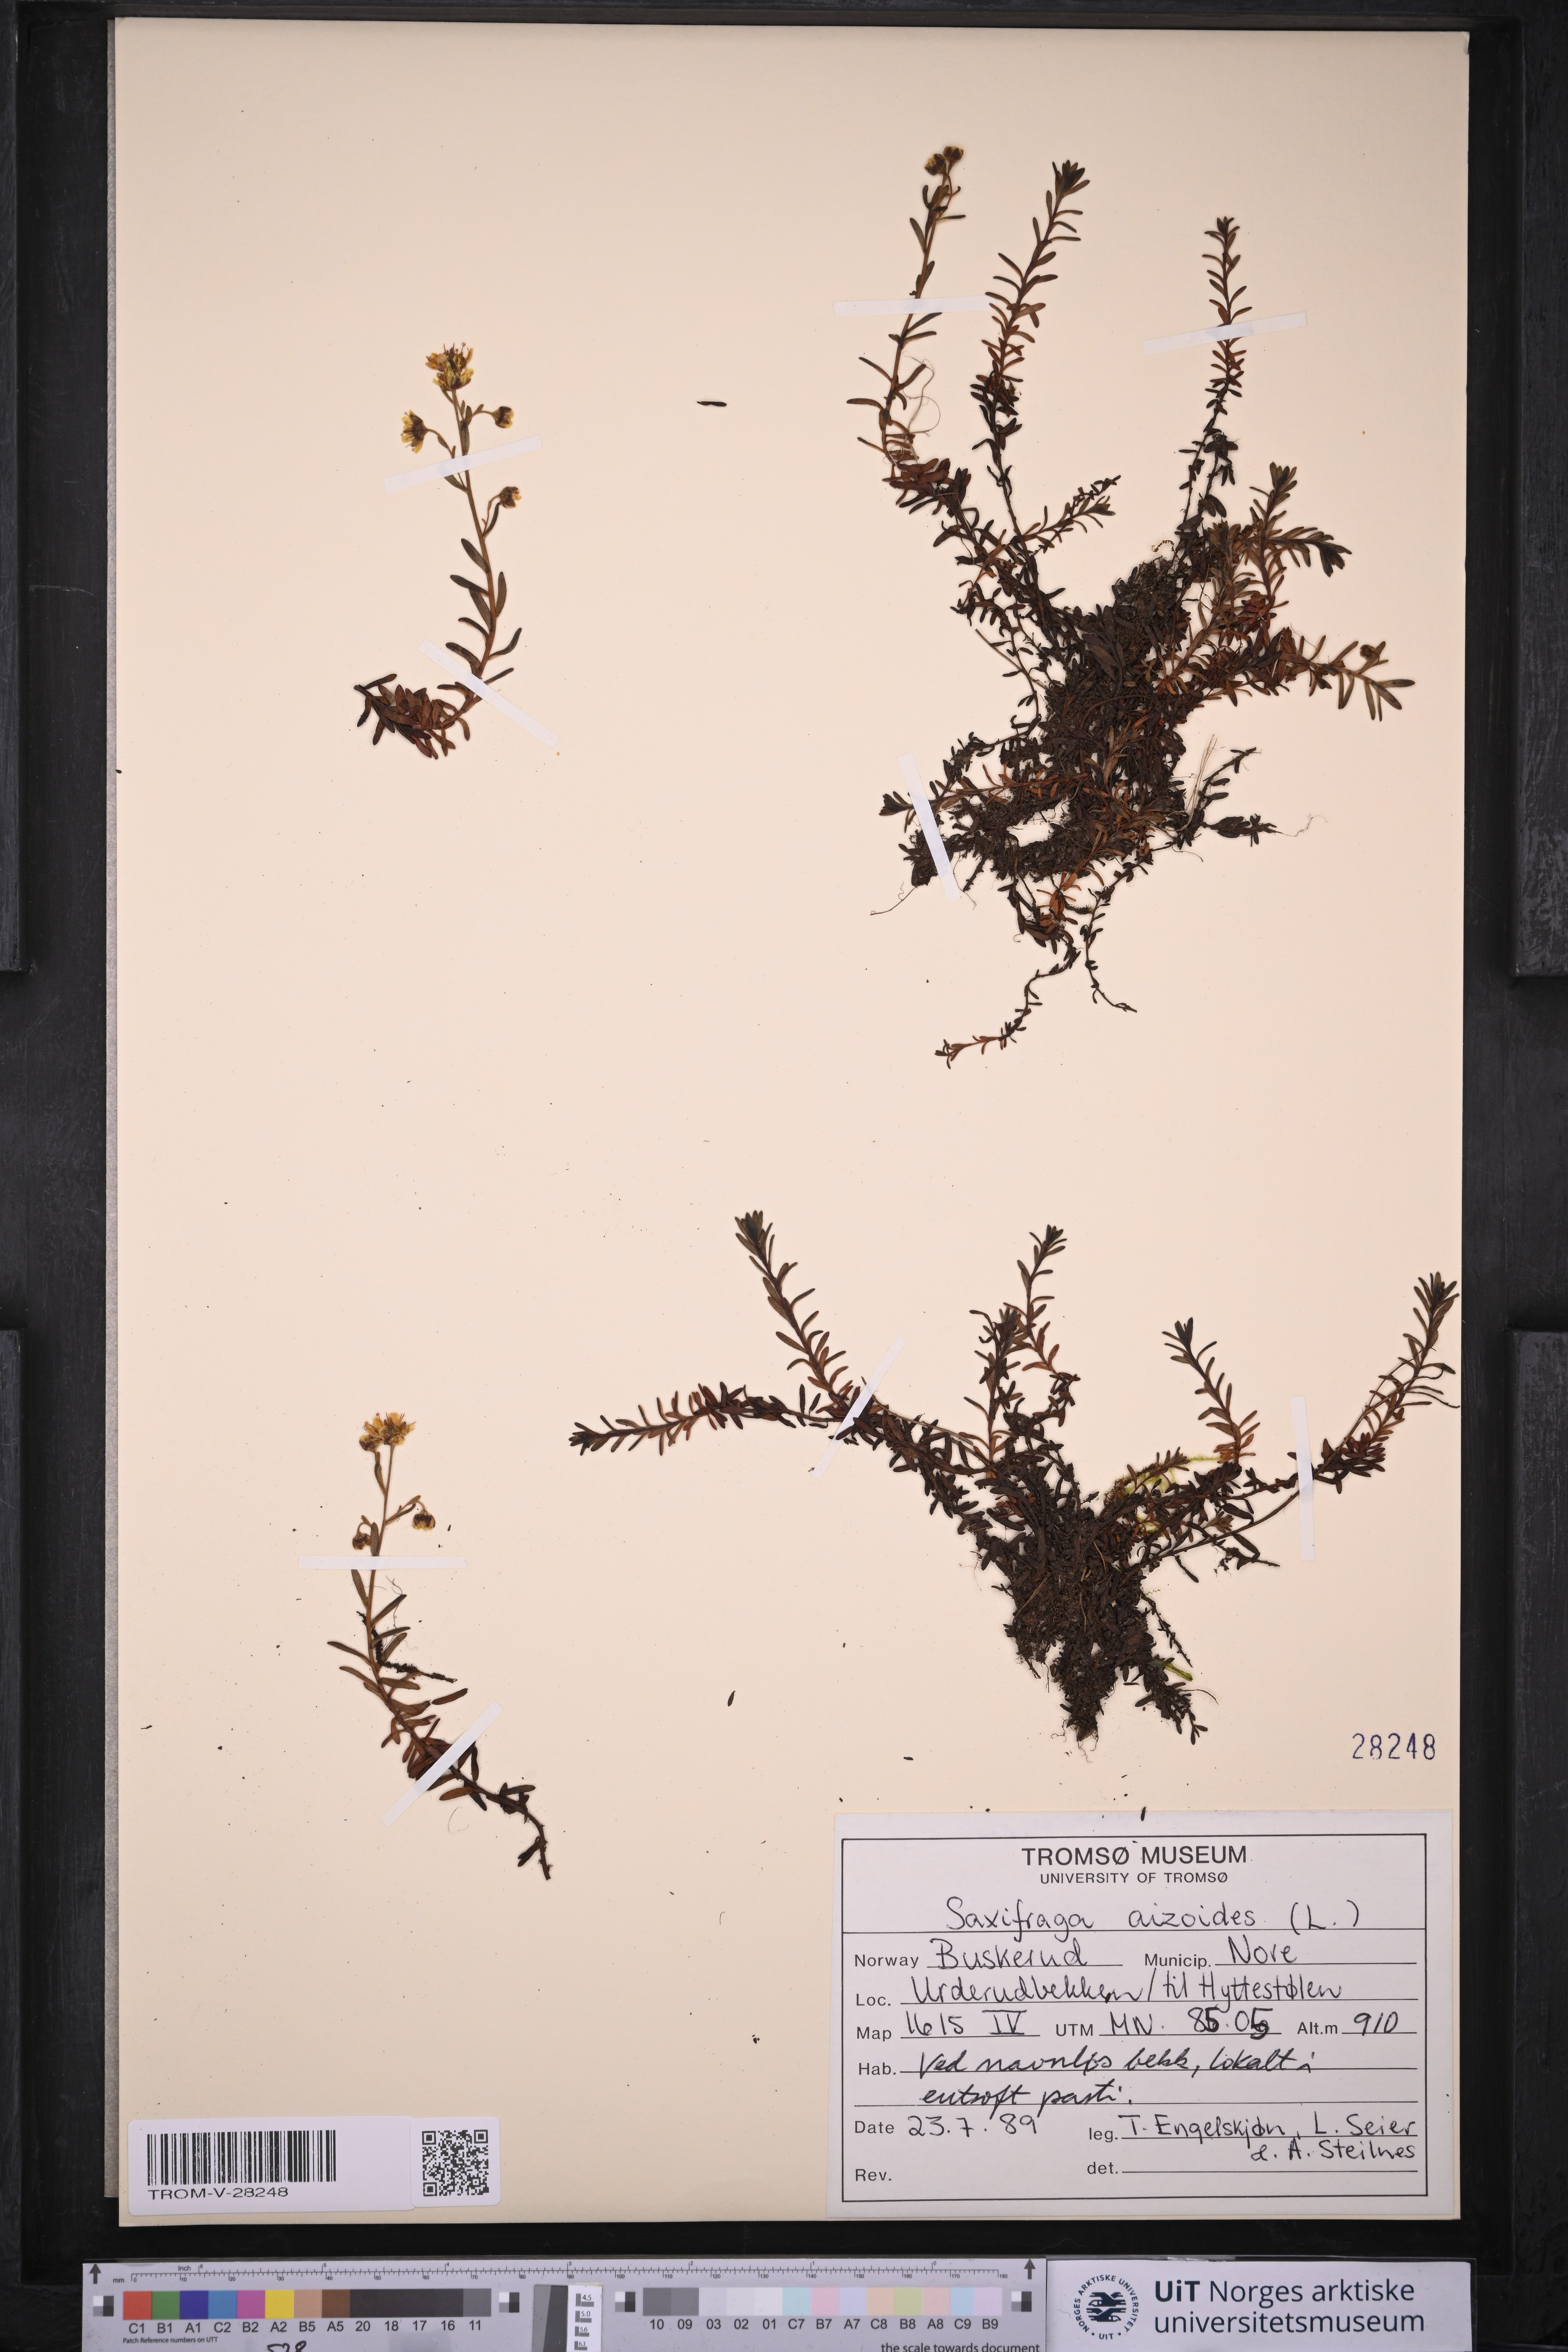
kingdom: Plantae
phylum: Tracheophyta
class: Magnoliopsida
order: Saxifragales
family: Saxifragaceae
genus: Saxifraga
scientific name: Saxifraga aizoides
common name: Yellow mountain saxifrage
